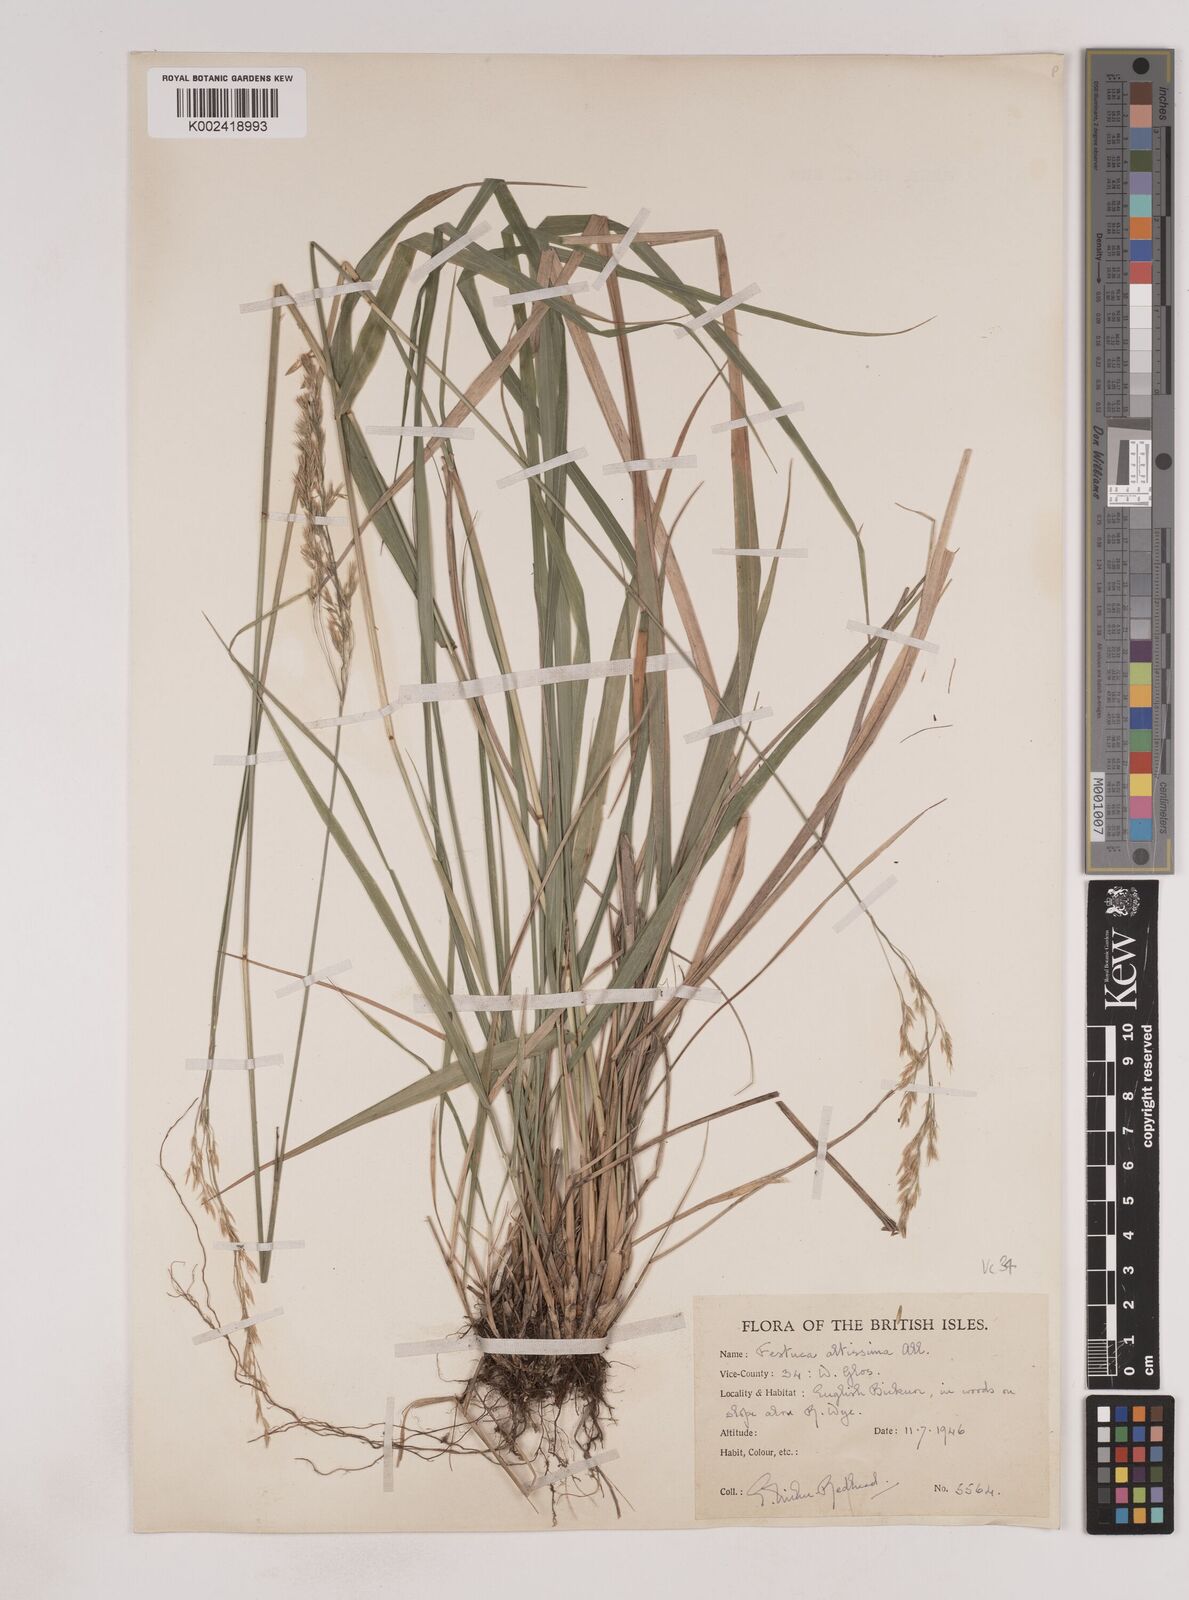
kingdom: Plantae
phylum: Tracheophyta
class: Liliopsida
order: Poales
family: Poaceae
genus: Festuca
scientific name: Festuca drymeja
